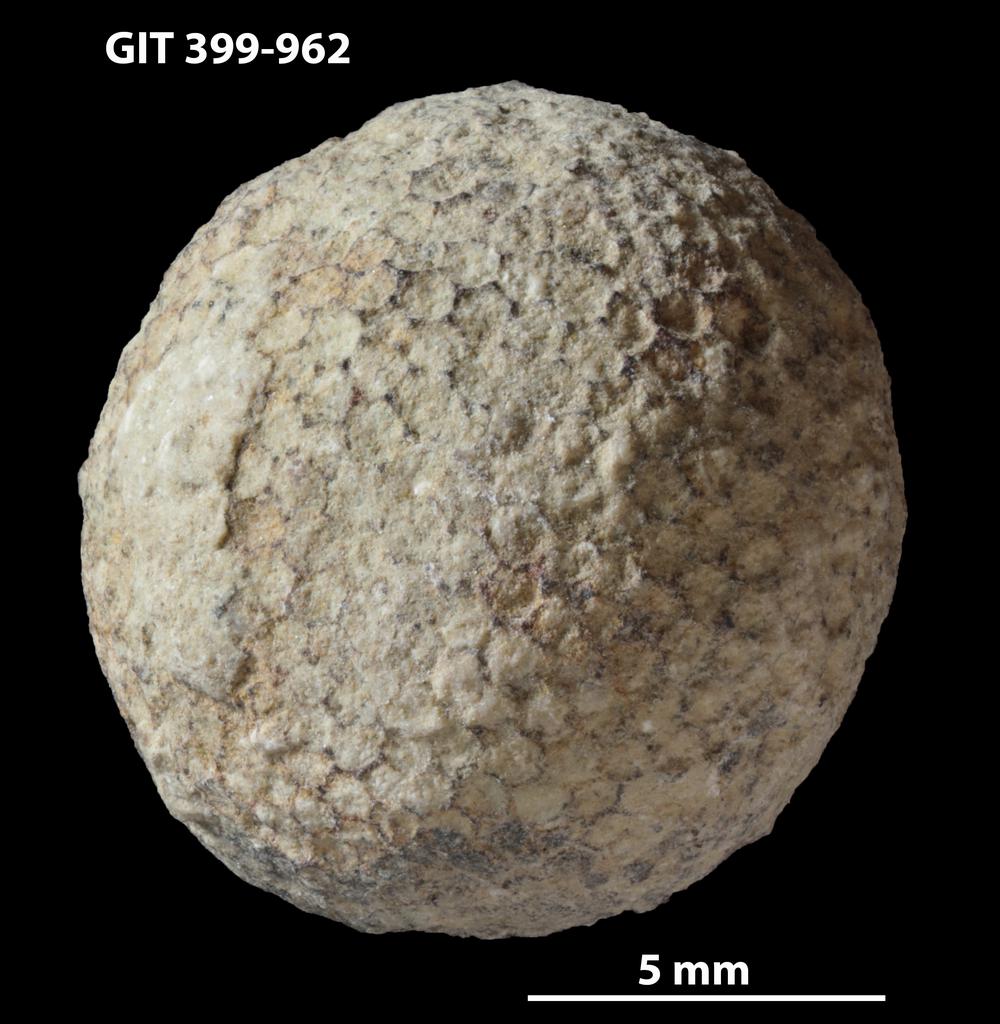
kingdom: Plantae
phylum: Chlorophyta
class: Ulvophyceae
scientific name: Ulvophyceae
